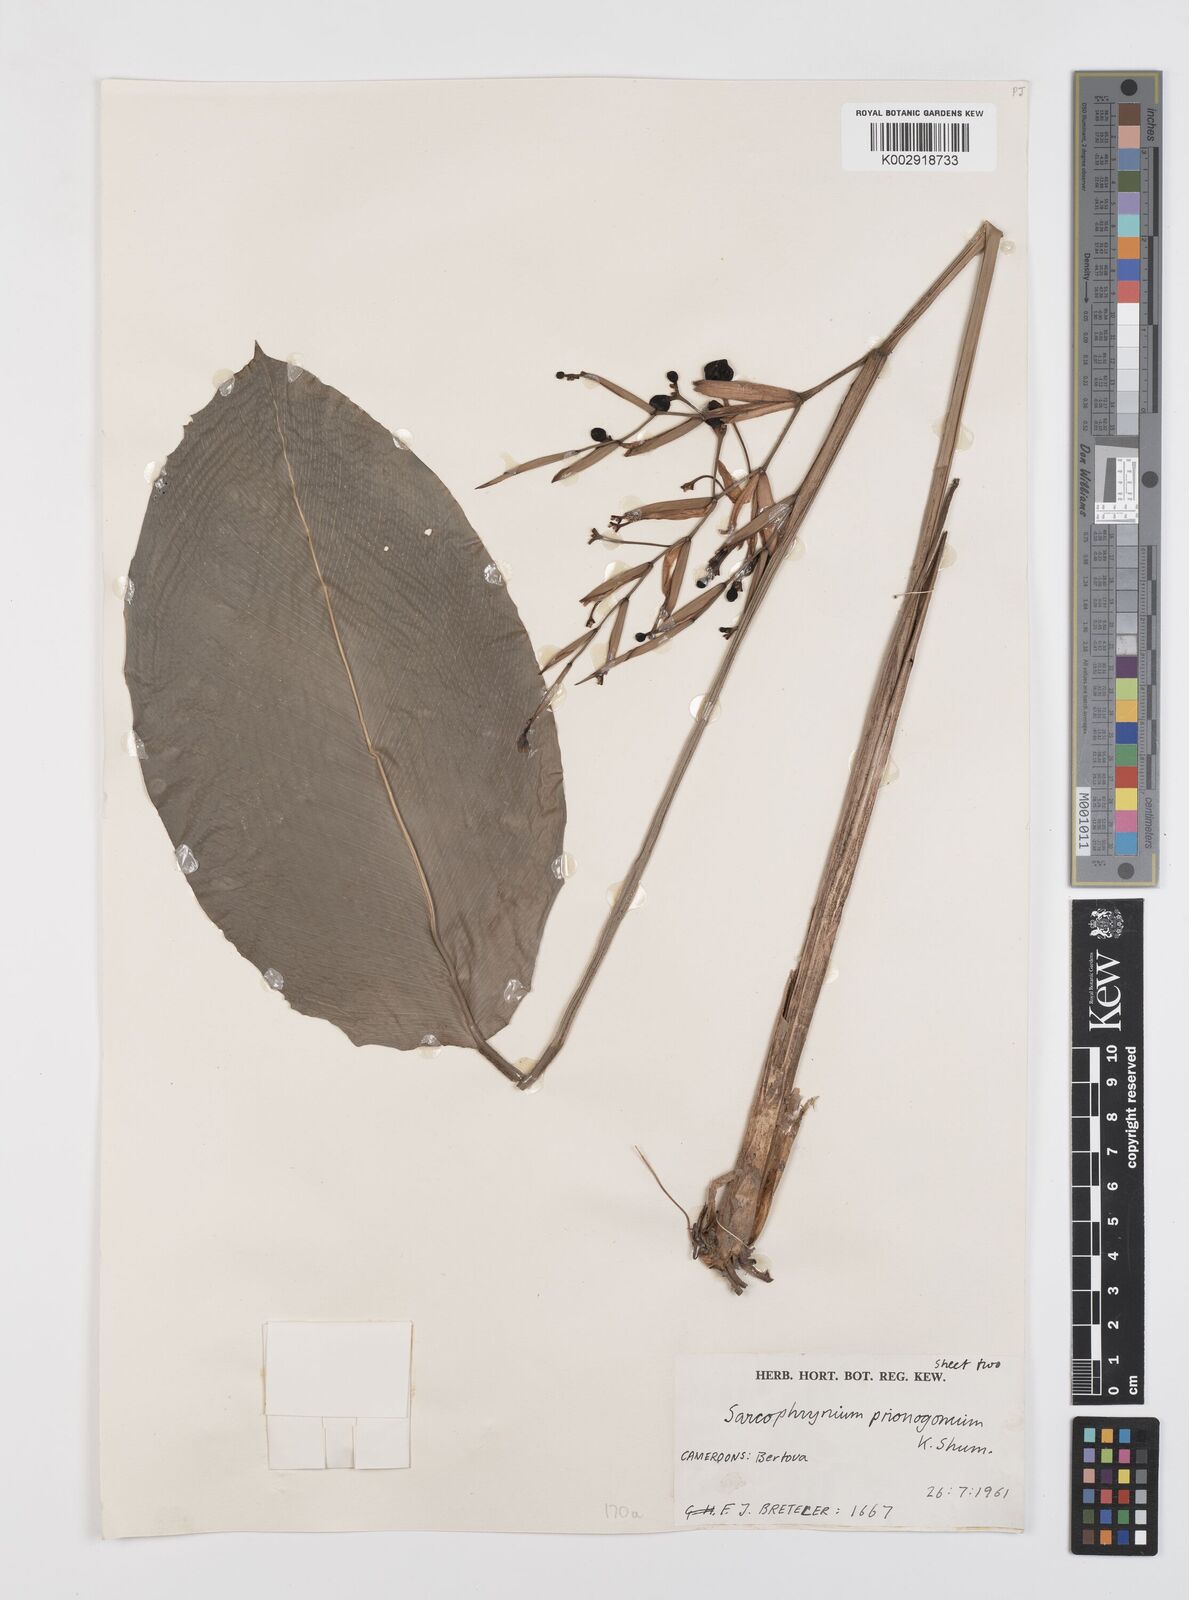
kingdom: Plantae
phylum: Tracheophyta
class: Liliopsida
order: Zingiberales
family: Marantaceae
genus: Sarcophrynium
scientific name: Sarcophrynium prionogonium
